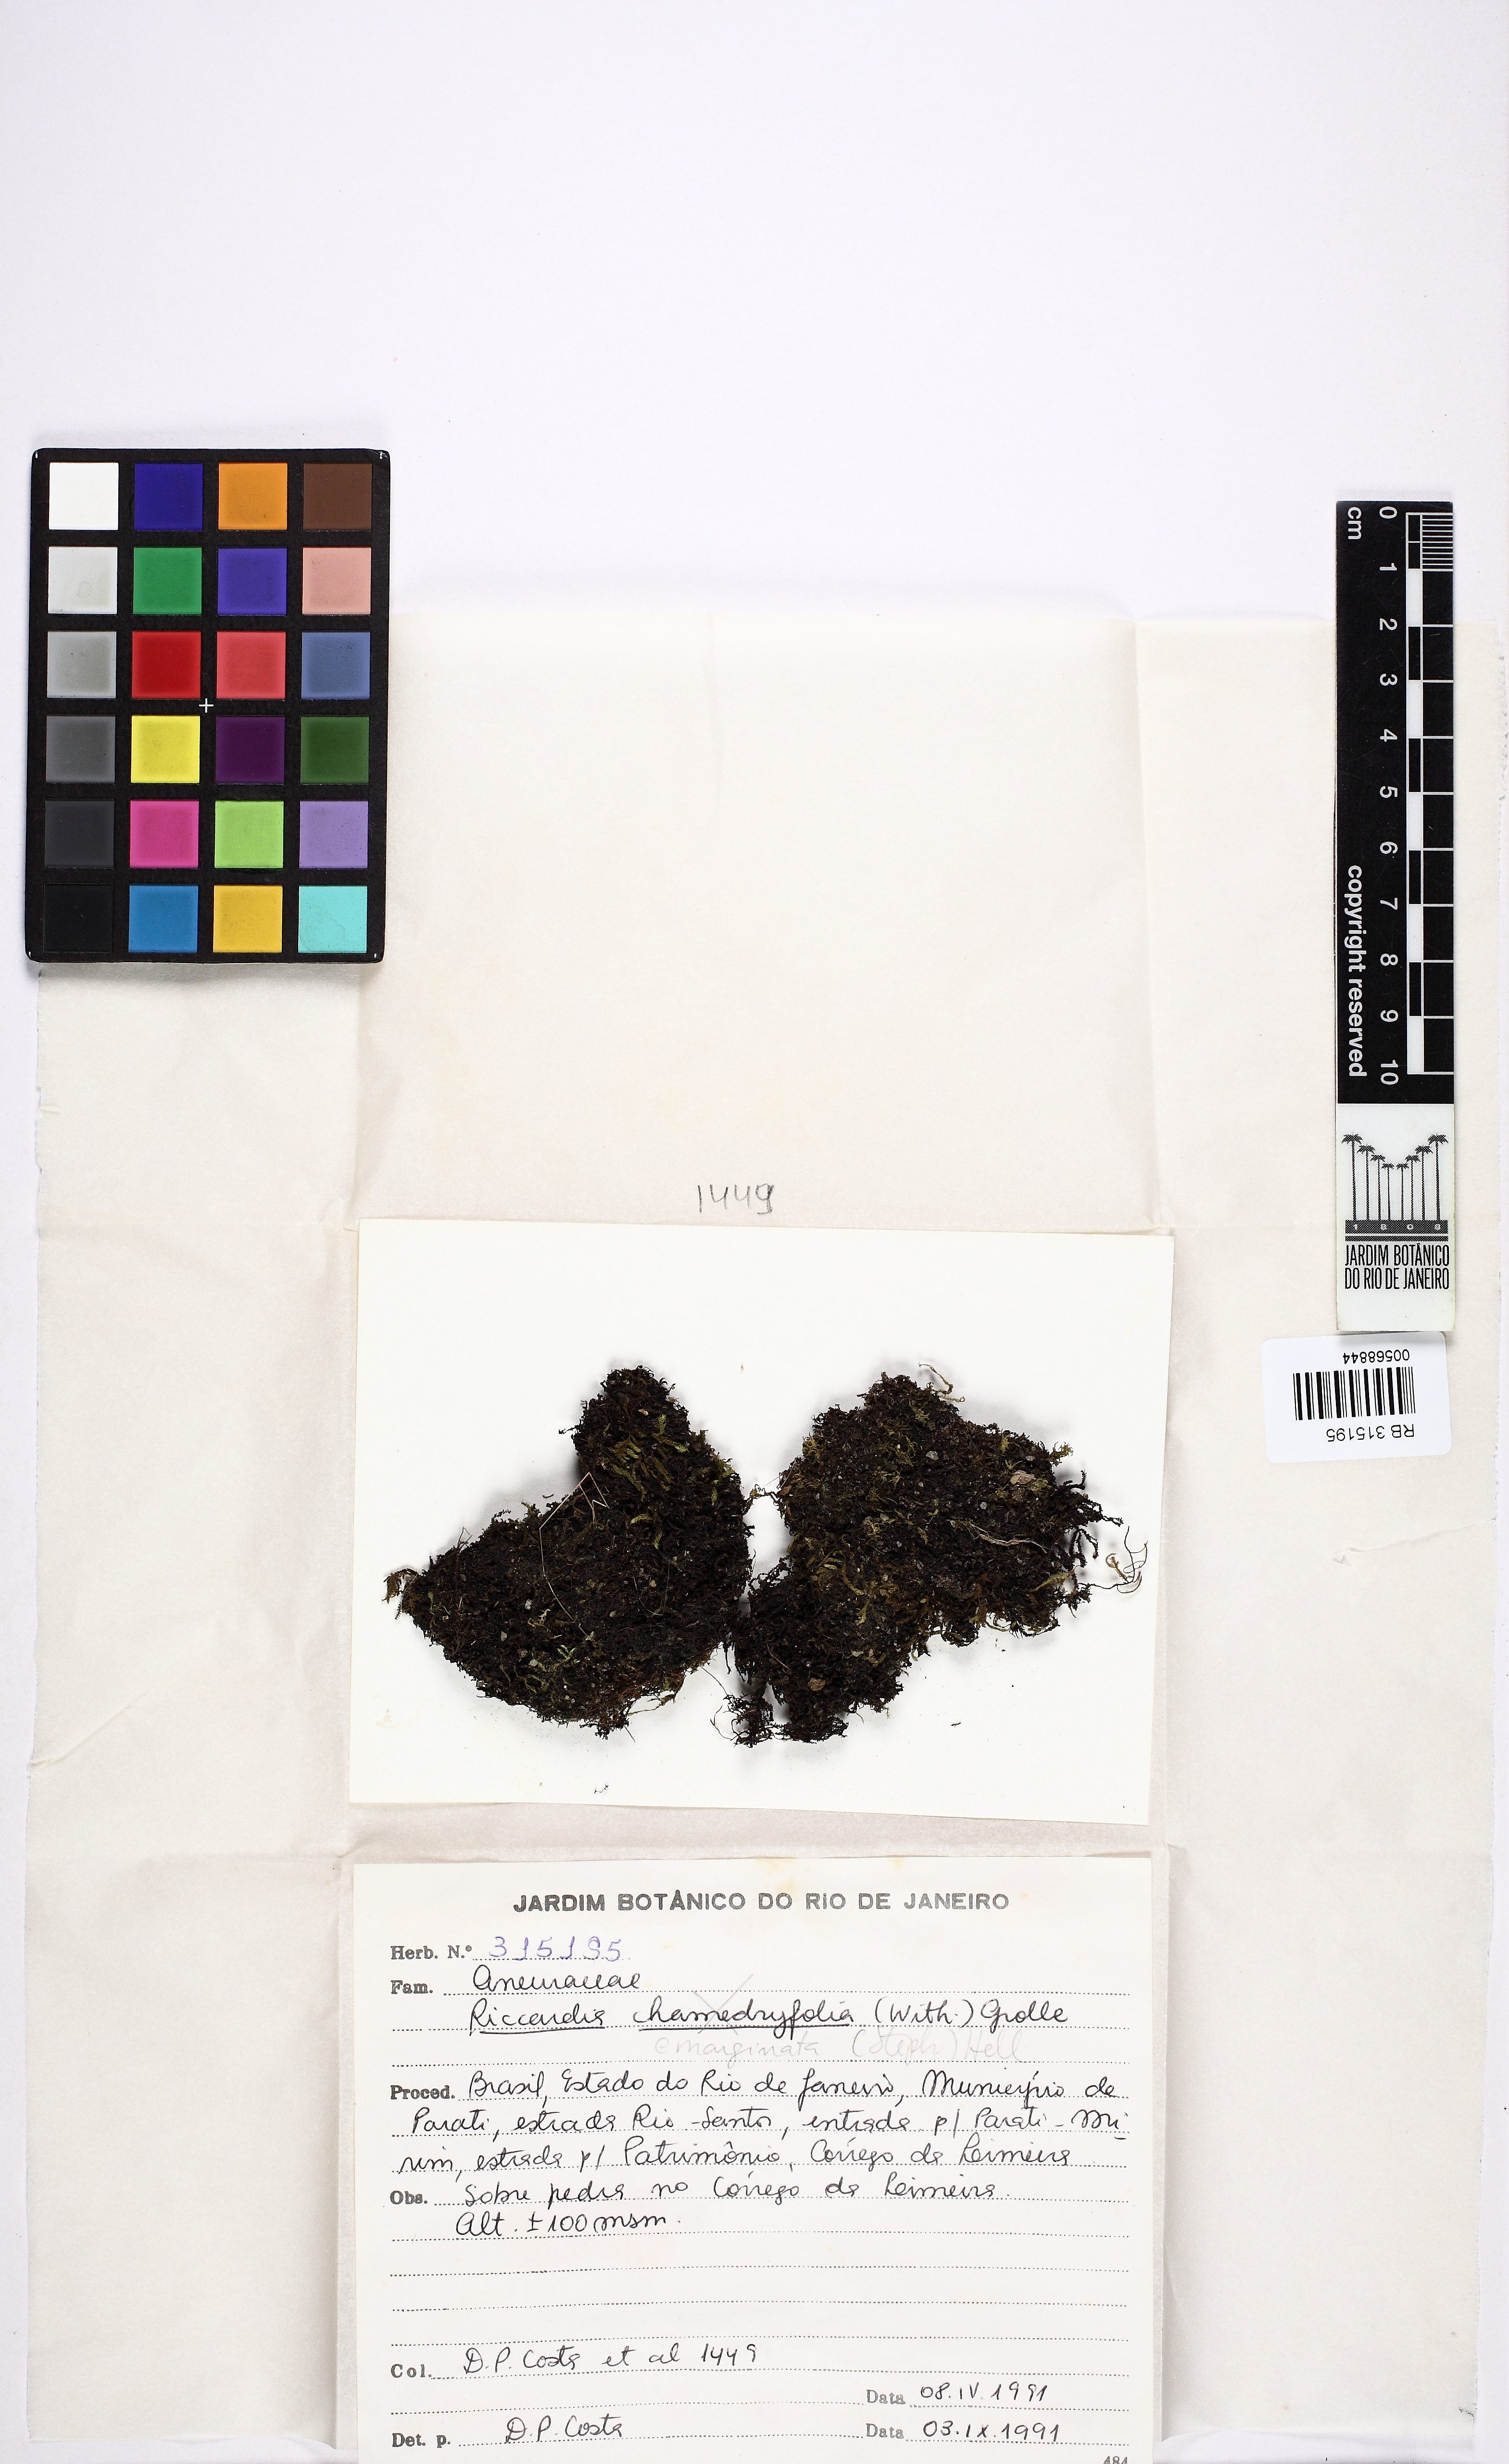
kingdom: Plantae
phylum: Marchantiophyta
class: Jungermanniopsida
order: Metzgeriales
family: Aneuraceae
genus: Riccardia
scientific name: Riccardia emarginata
